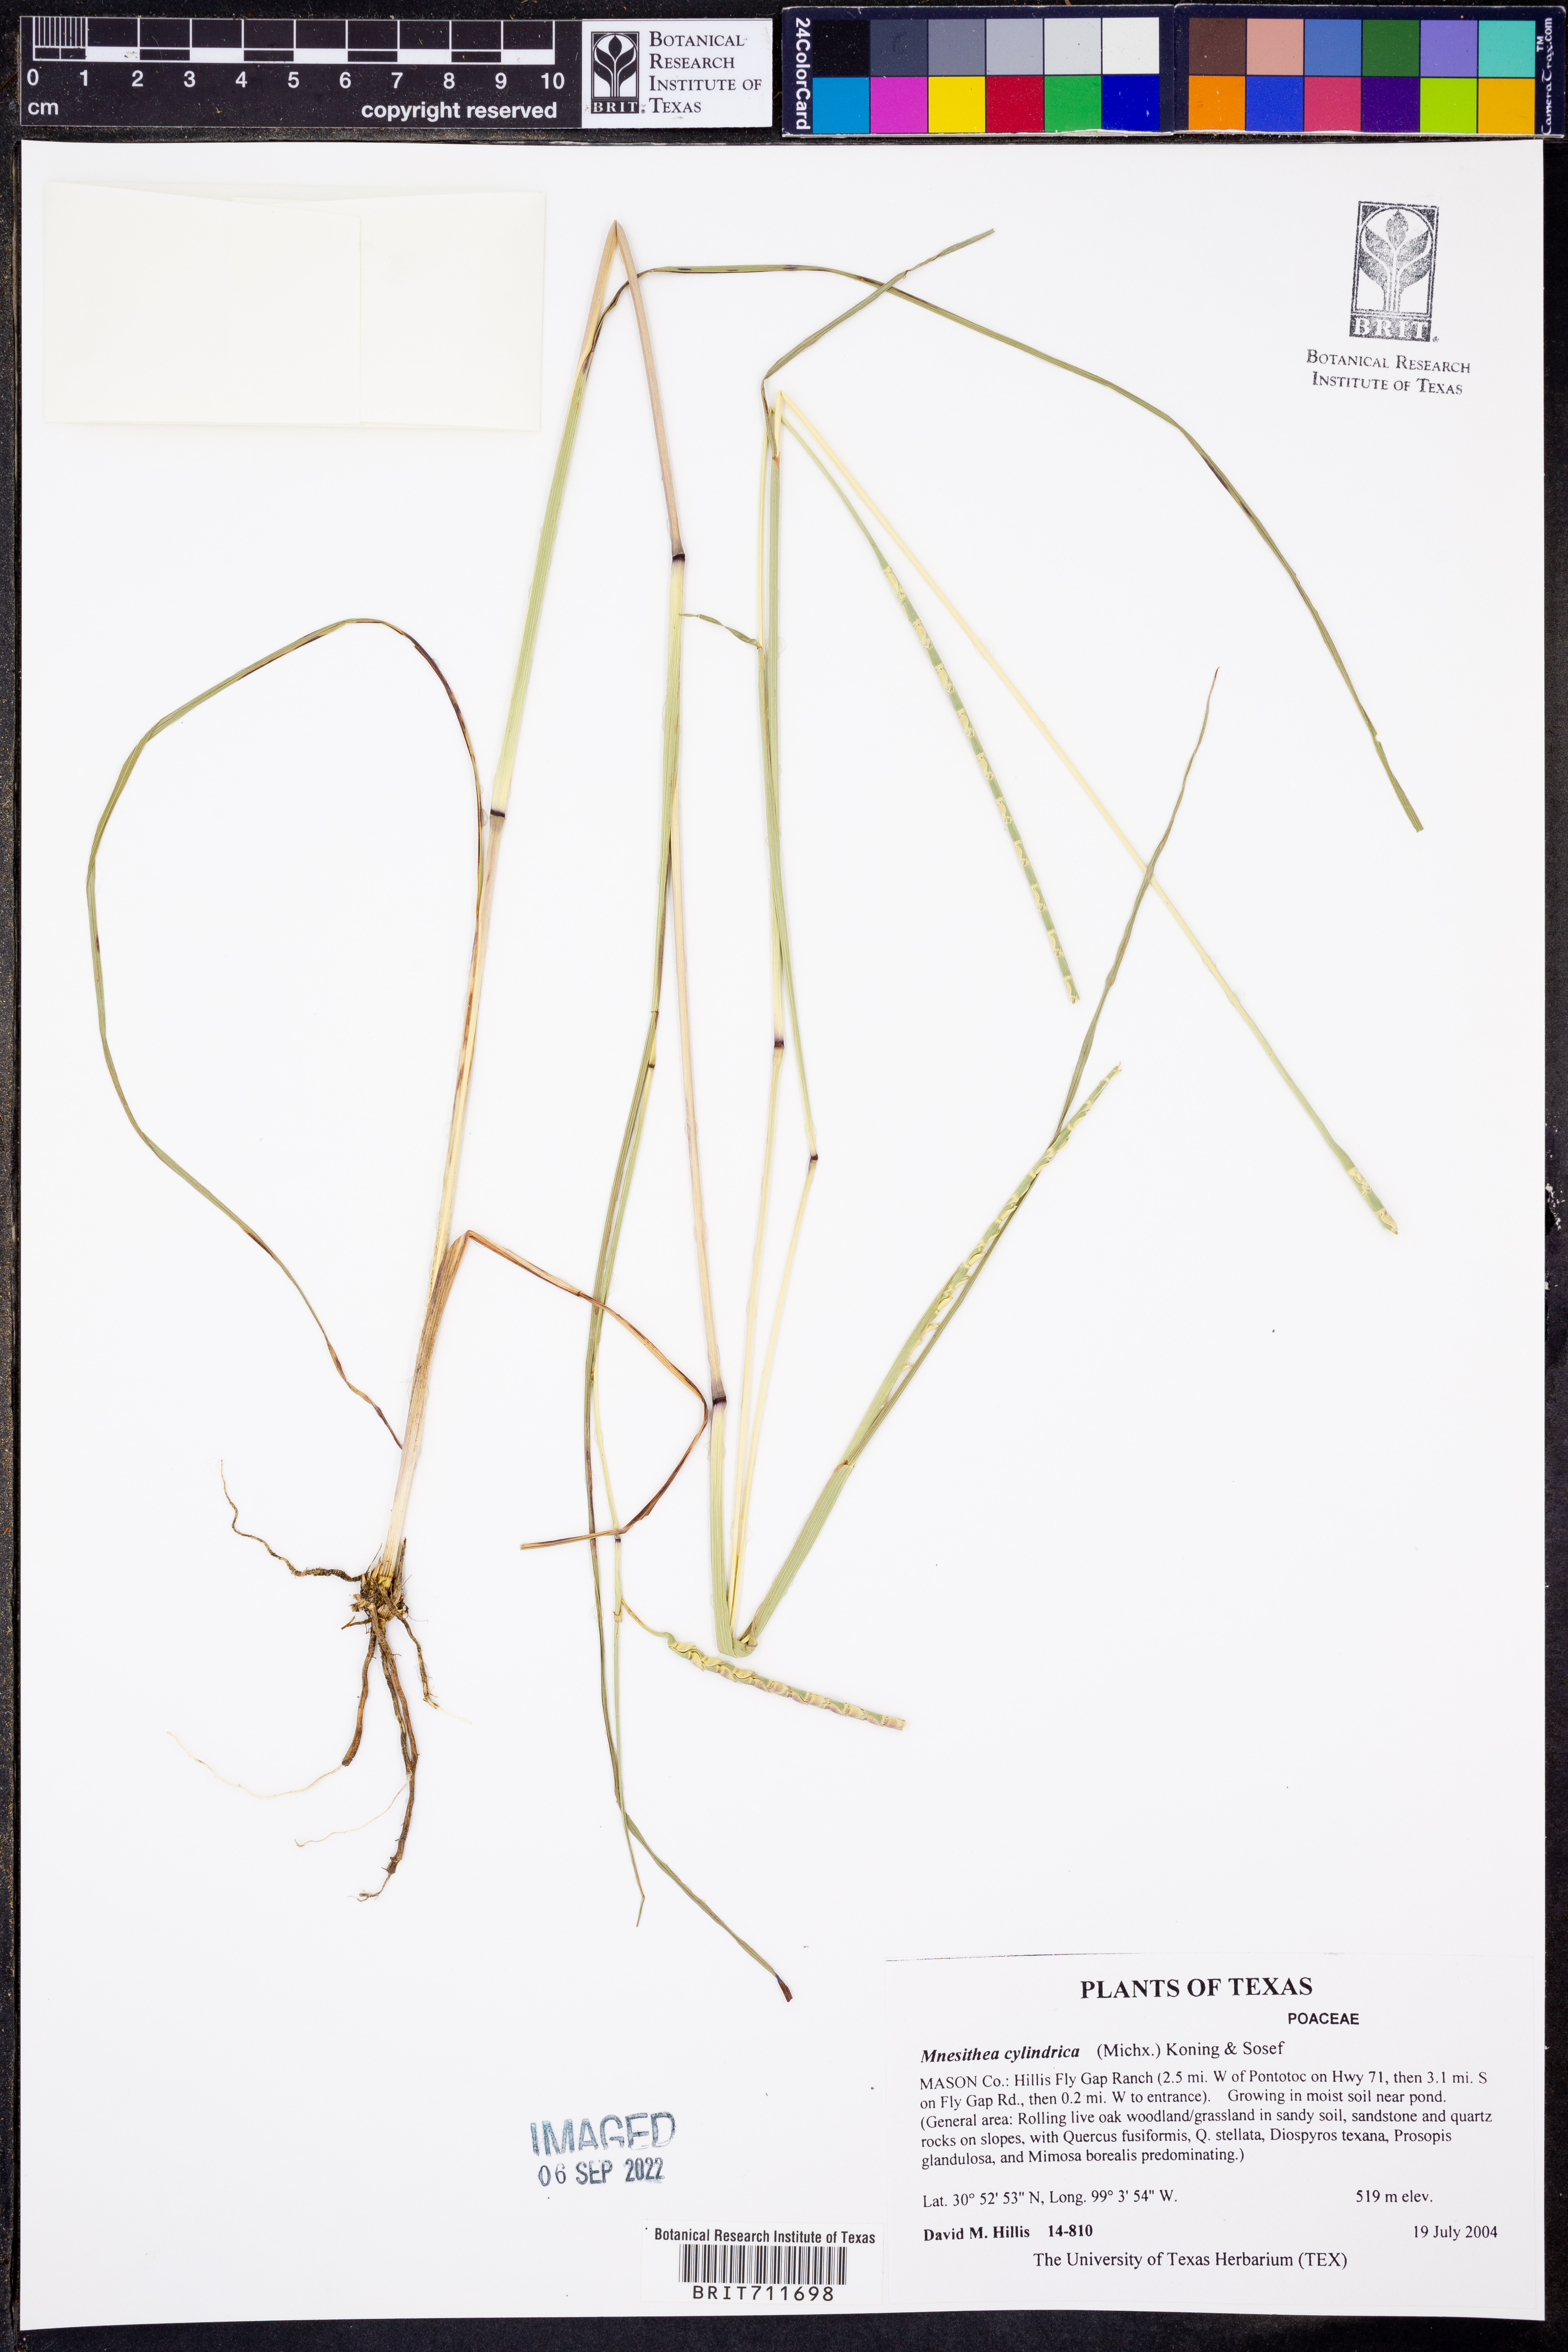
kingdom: Plantae
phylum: Tracheophyta
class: Liliopsida
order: Poales
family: Poaceae
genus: Rottboellia
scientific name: Rottboellia campestris
